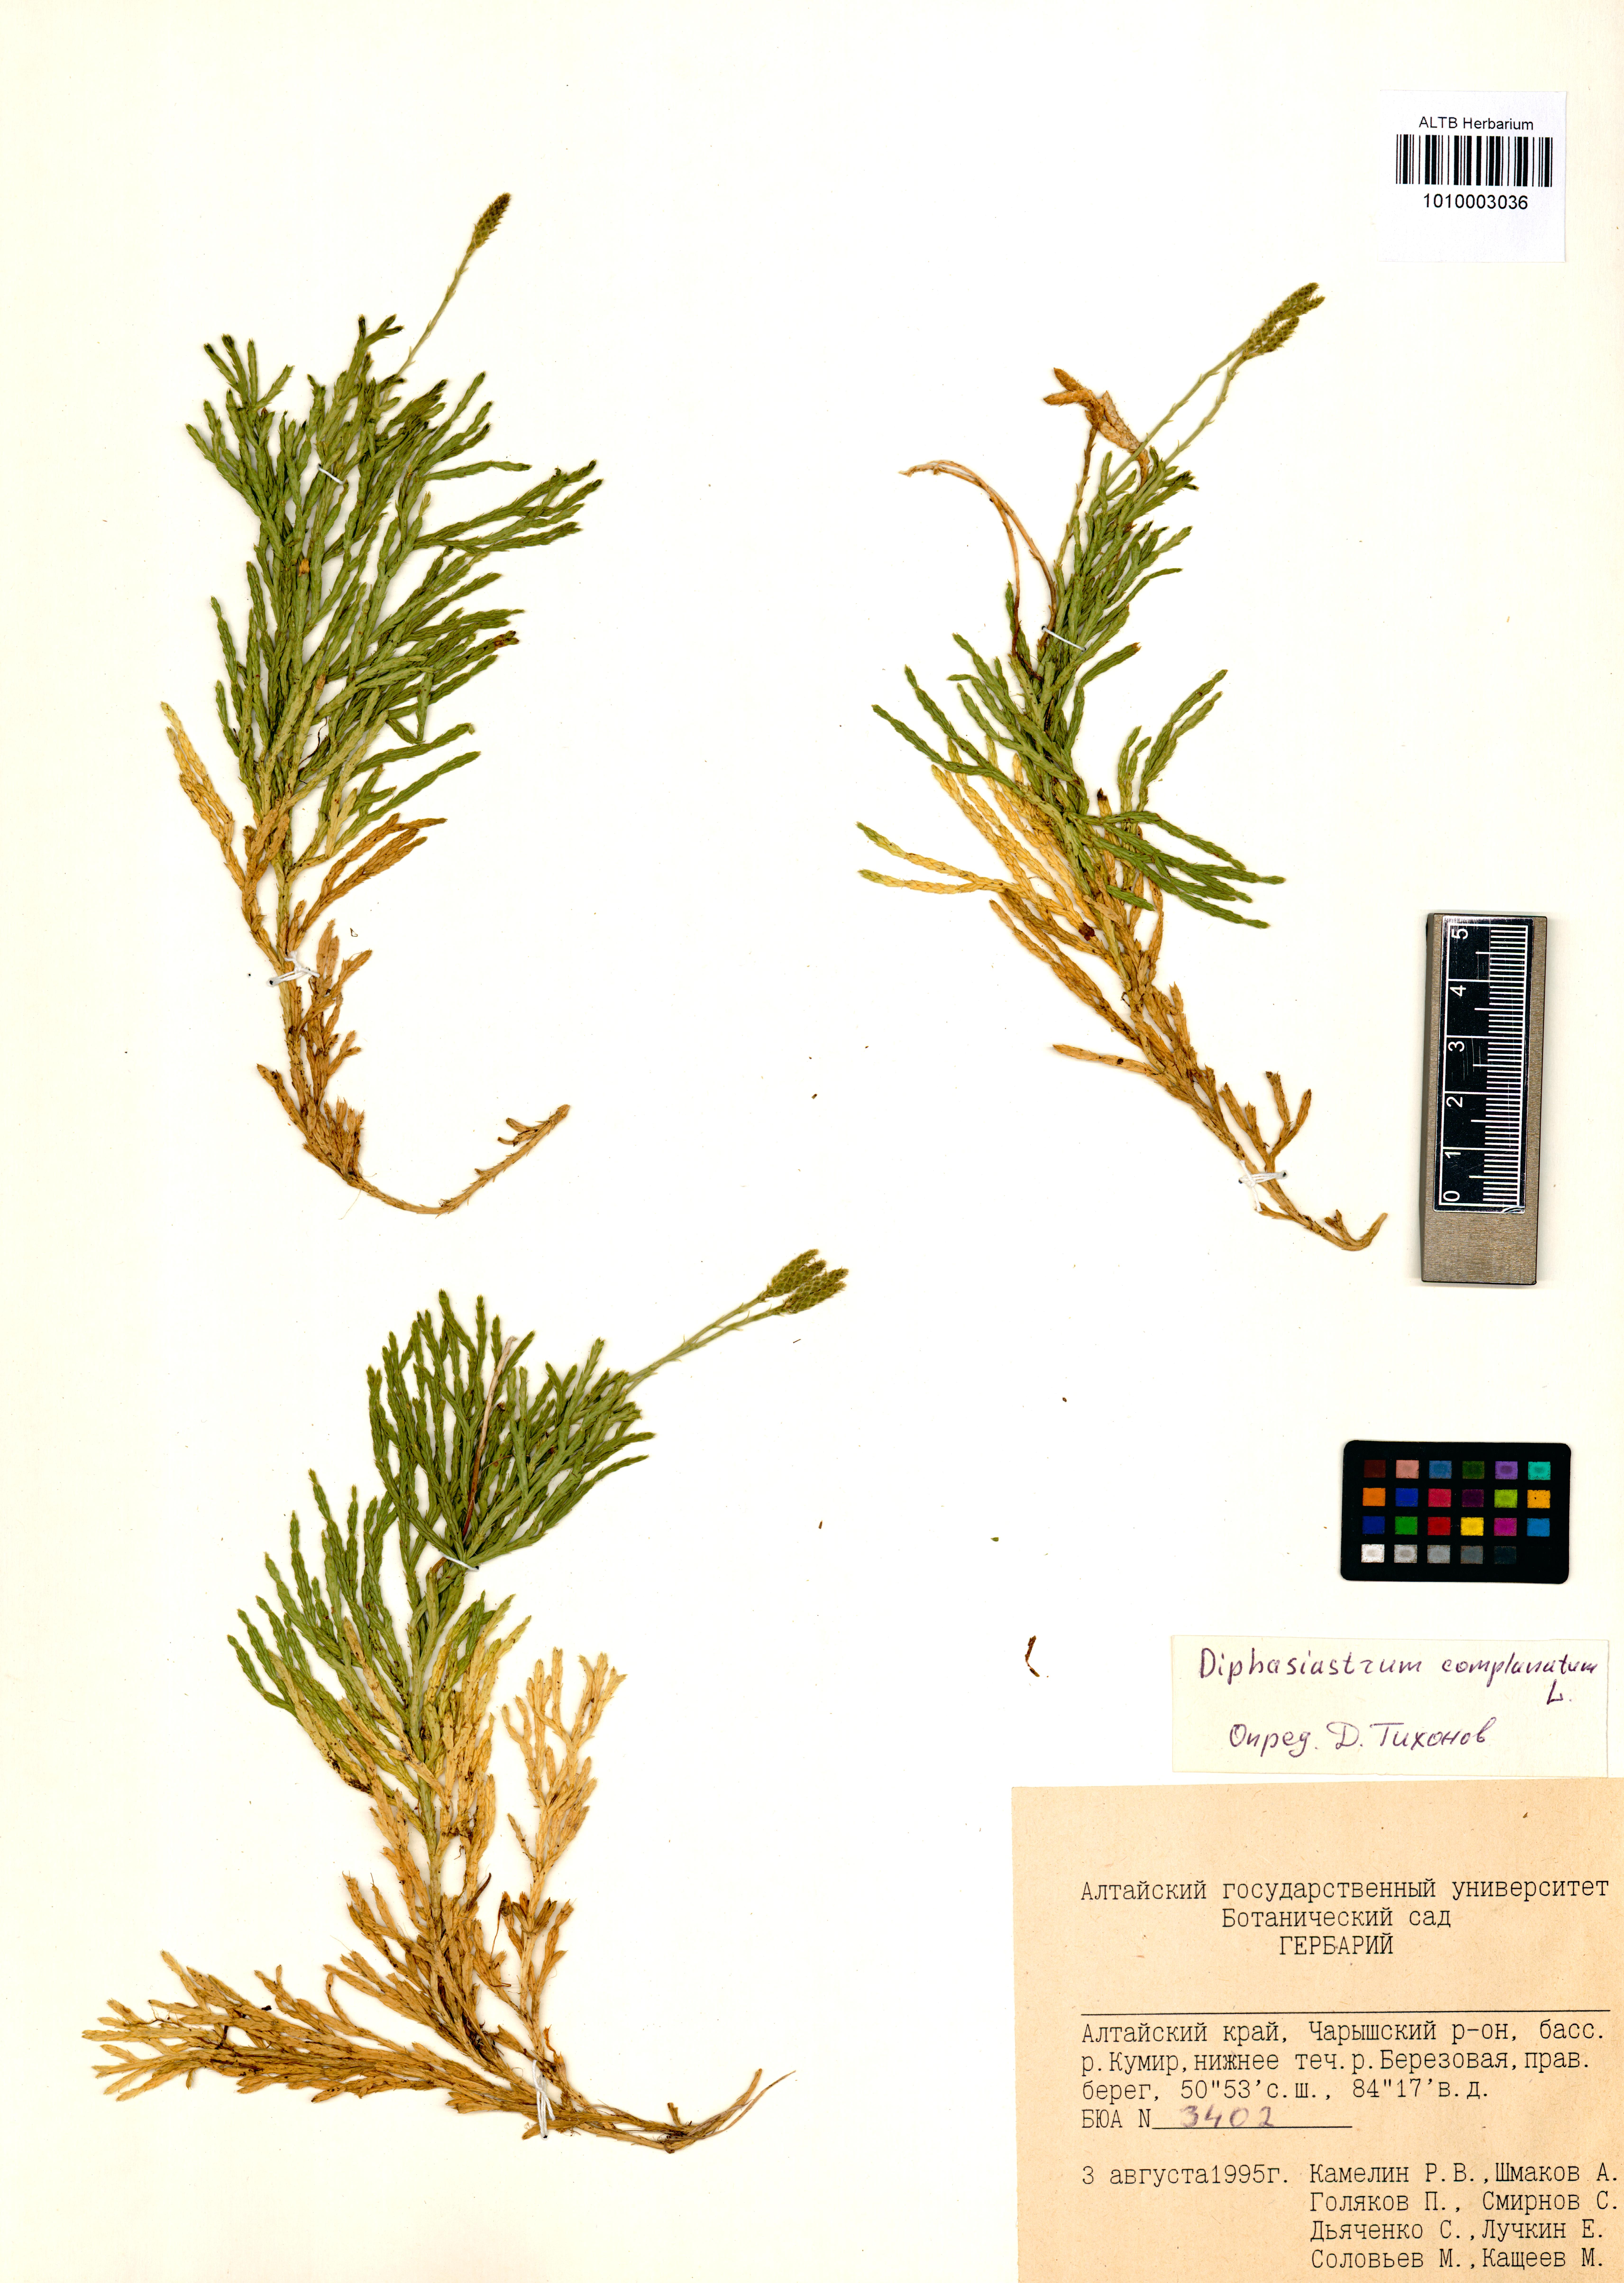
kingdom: Plantae
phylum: Tracheophyta
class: Lycopodiopsida
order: Lycopodiales
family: Lycopodiaceae
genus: Diphasiastrum
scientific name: Diphasiastrum complanatum
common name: Northern running-pine
